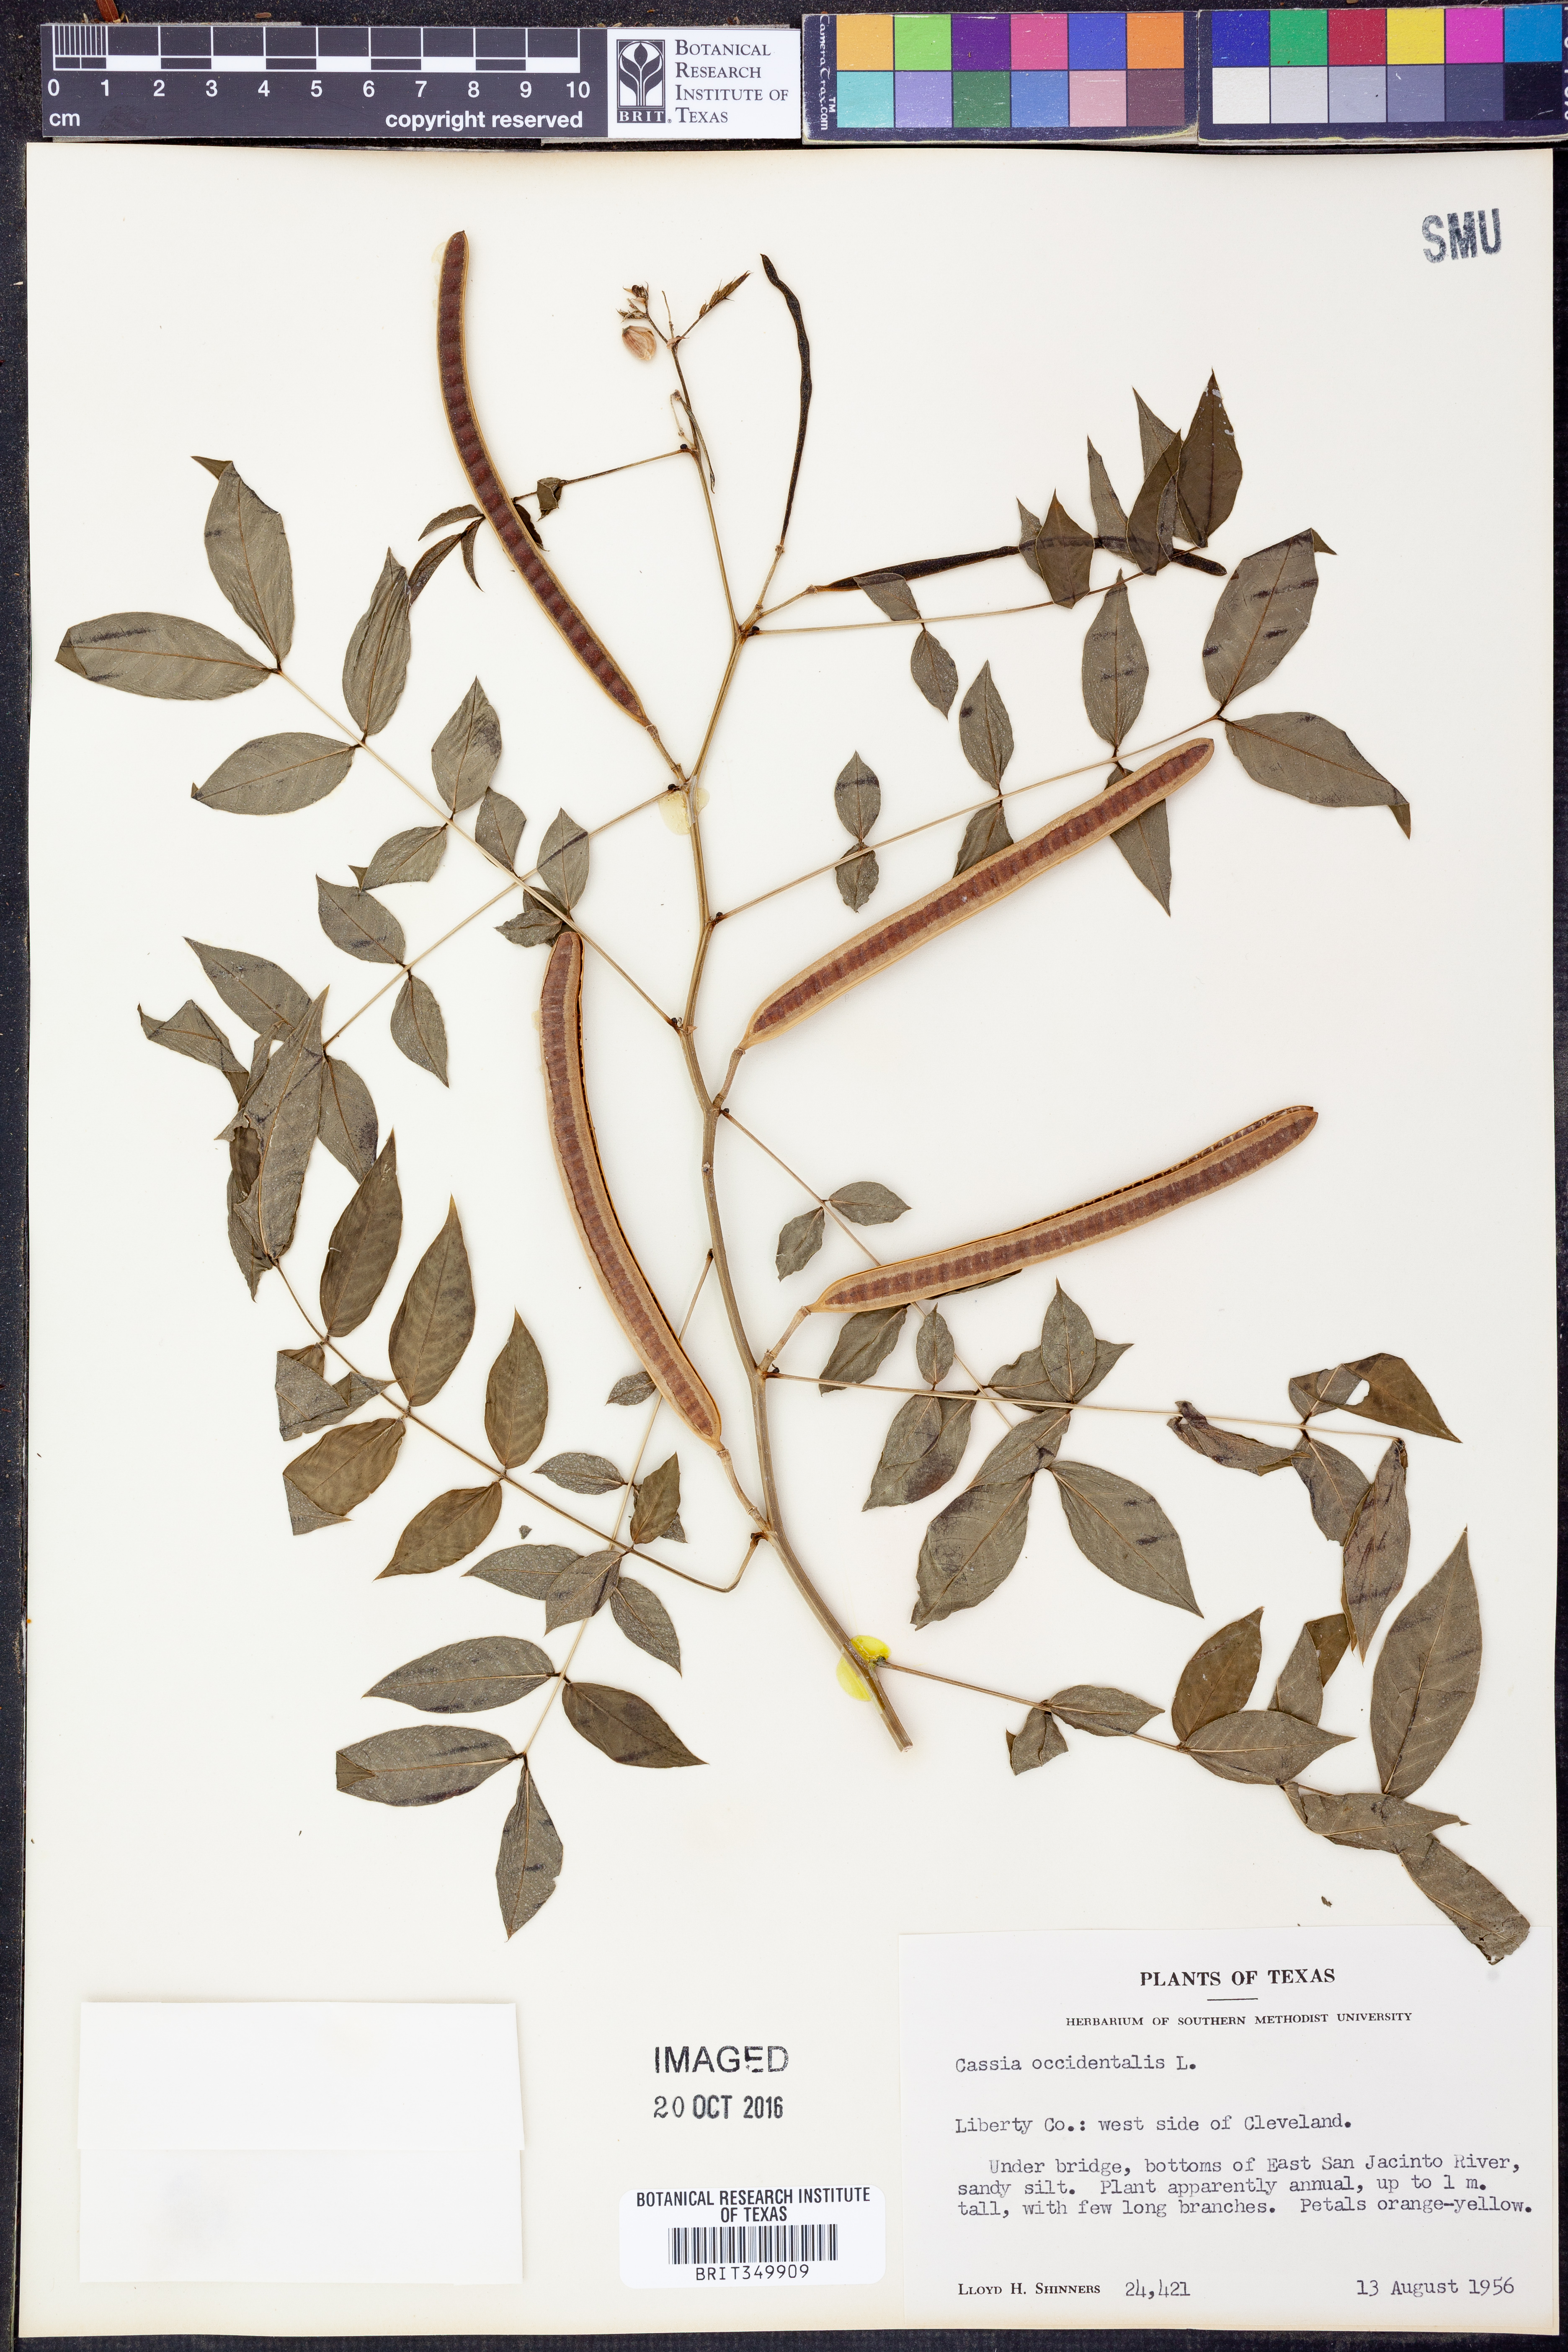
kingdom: Plantae
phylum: Tracheophyta
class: Magnoliopsida
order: Fabales
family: Fabaceae
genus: Senna
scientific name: Senna occidentalis
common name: Septicweed
